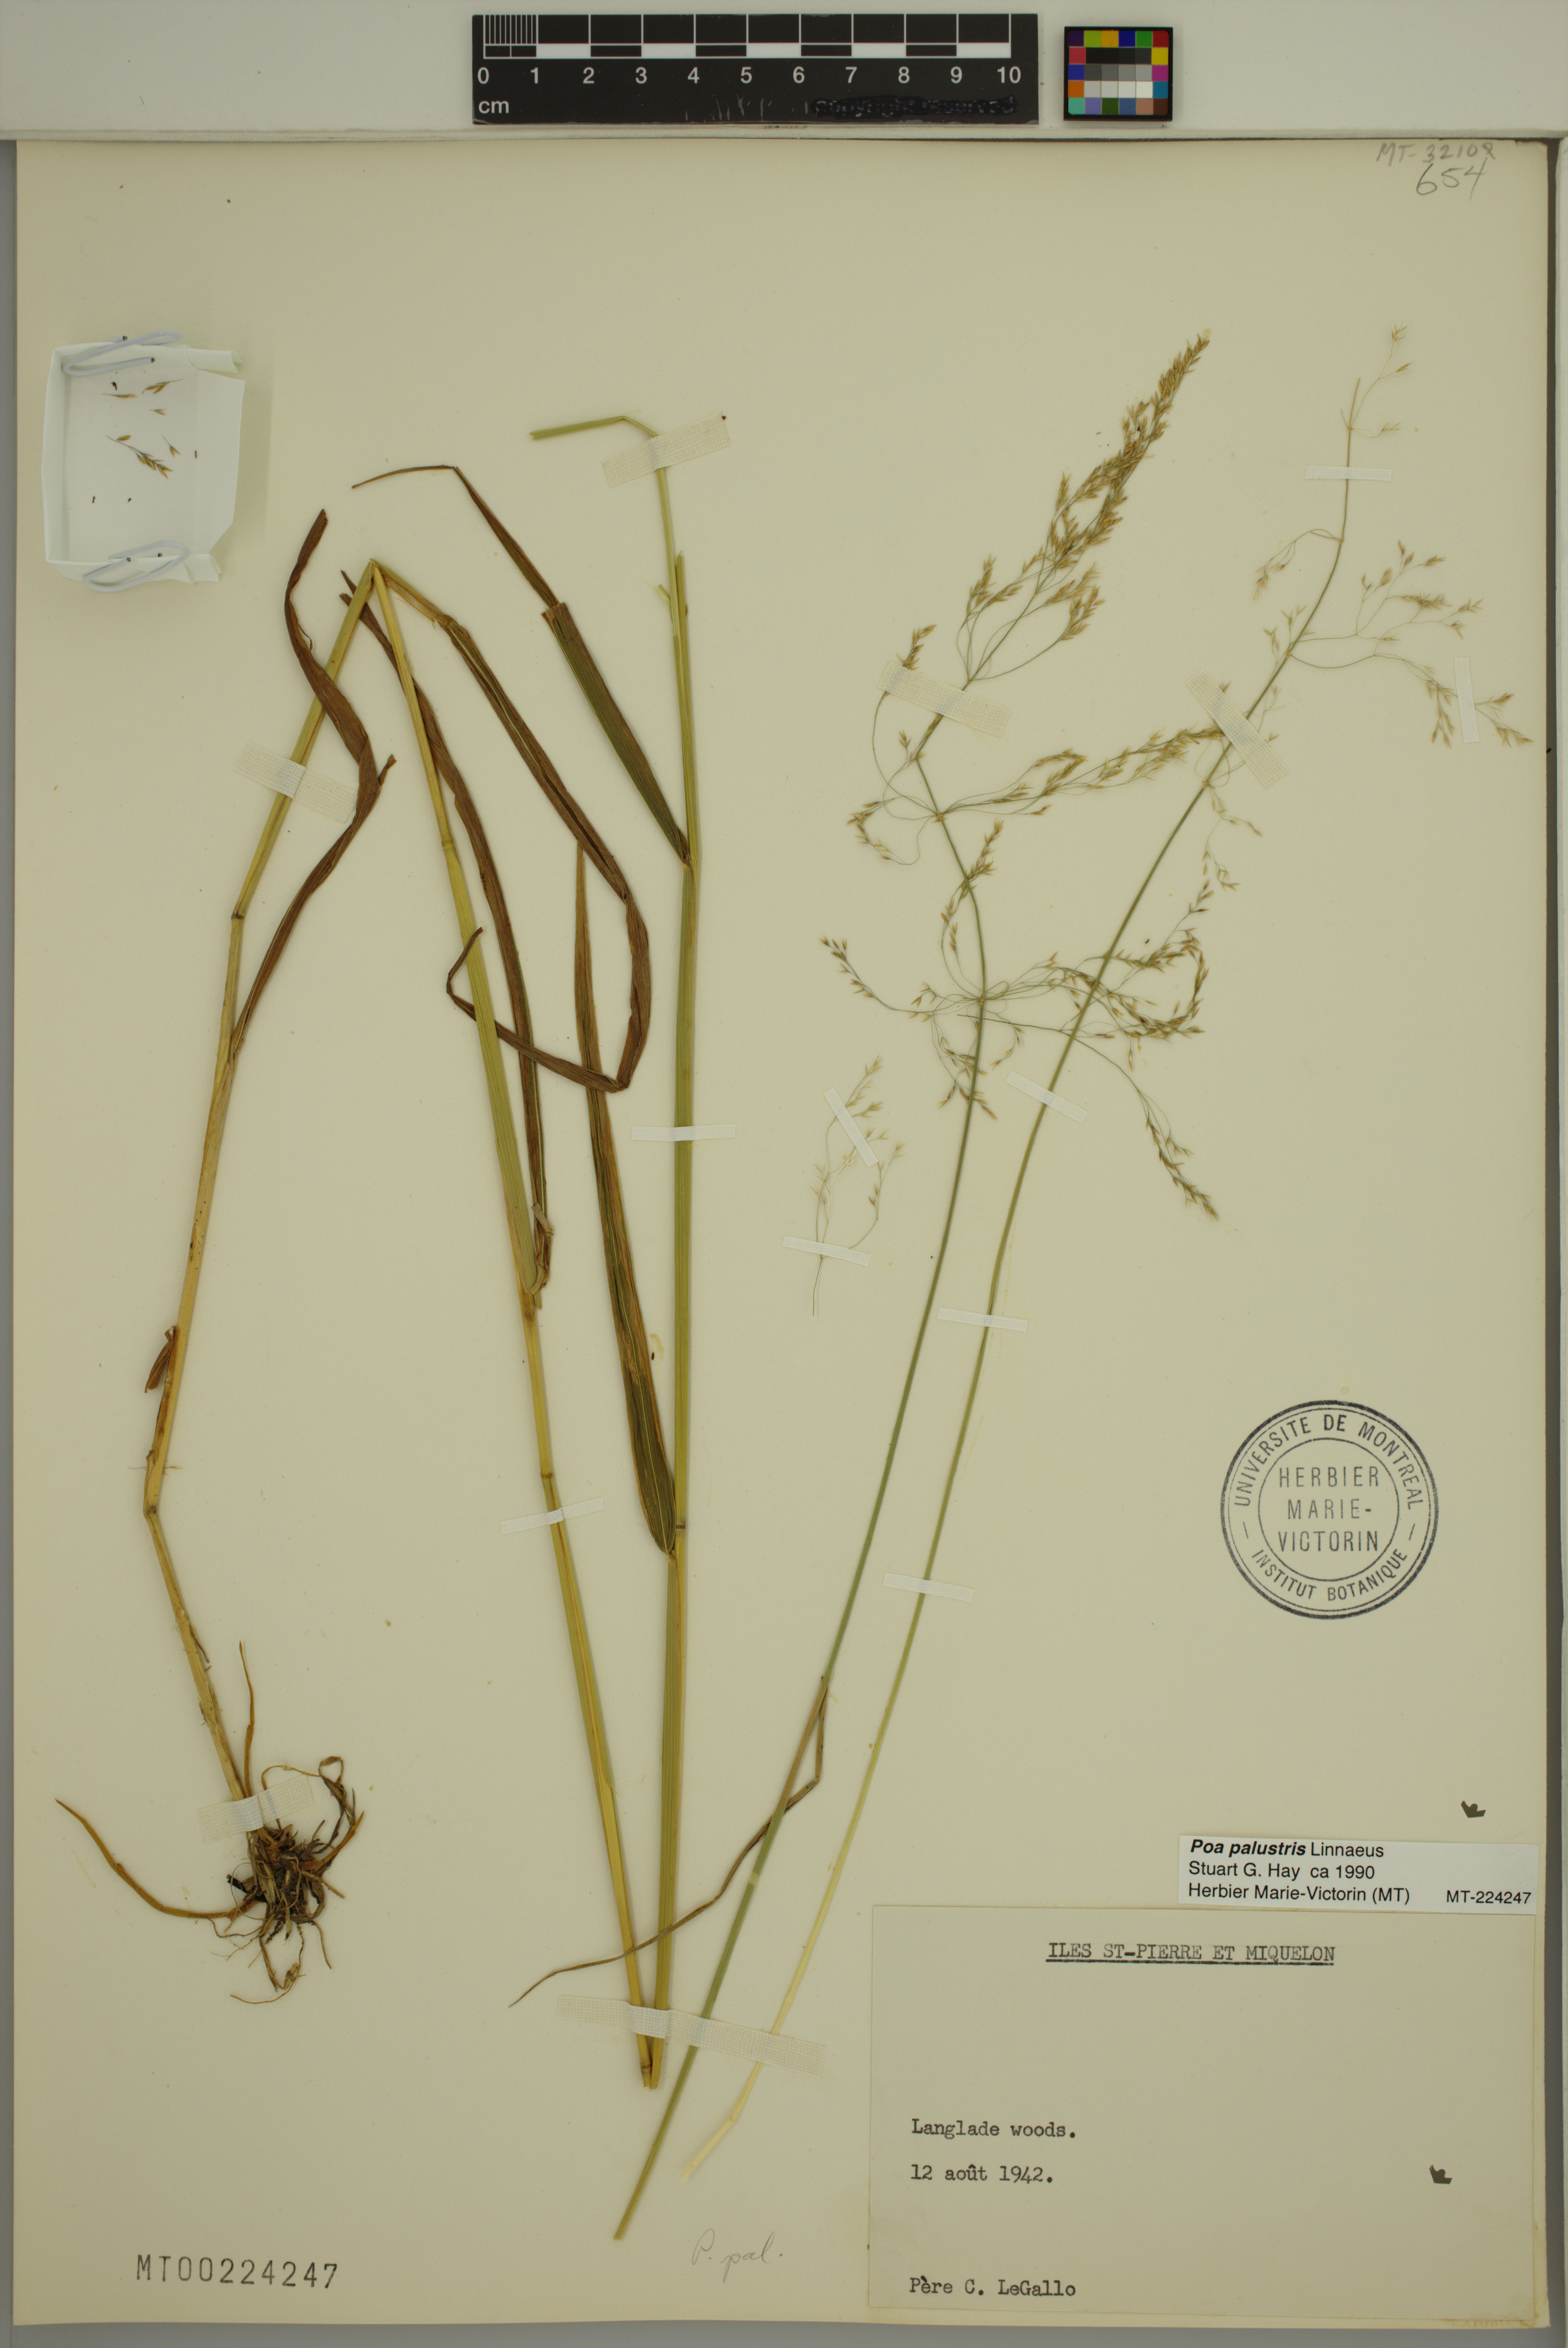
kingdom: Plantae
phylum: Tracheophyta
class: Liliopsida
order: Poales
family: Poaceae
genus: Poa
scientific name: Poa palustris
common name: Swamp meadow-grass
